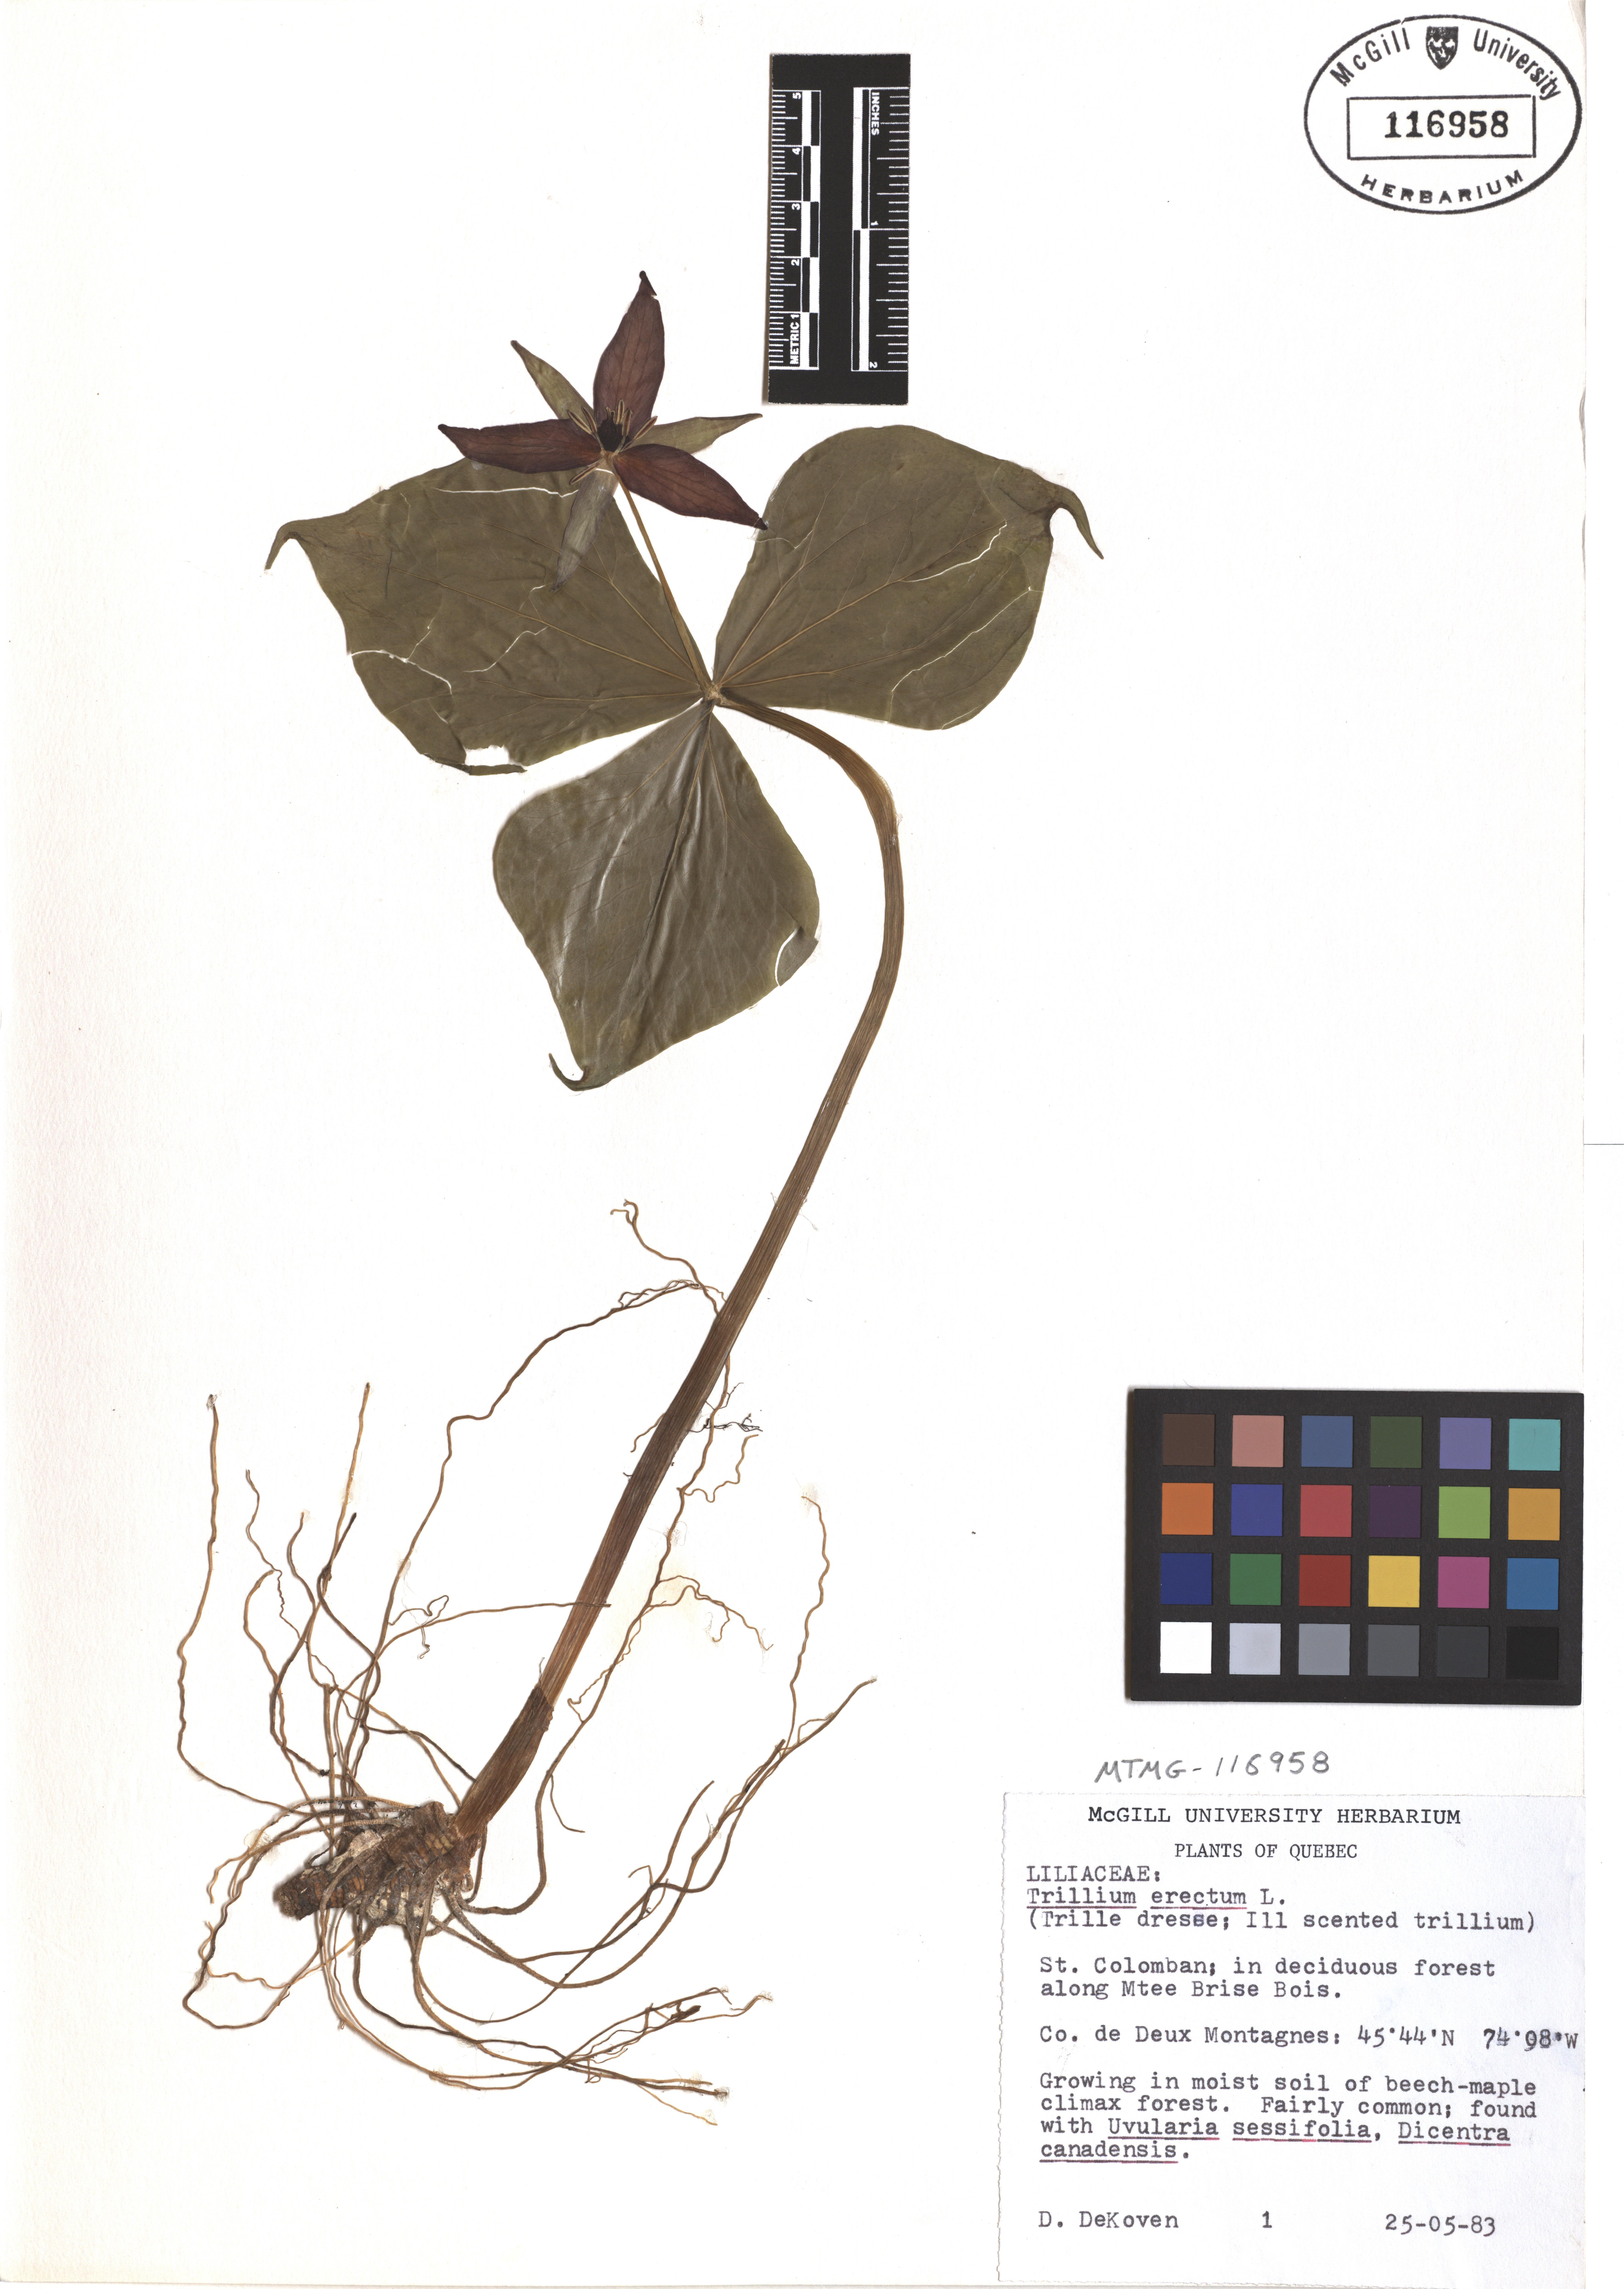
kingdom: Plantae
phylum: Tracheophyta
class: Liliopsida
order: Liliales
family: Melanthiaceae
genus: Trillium
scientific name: Trillium erectum
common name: Purple trillium
